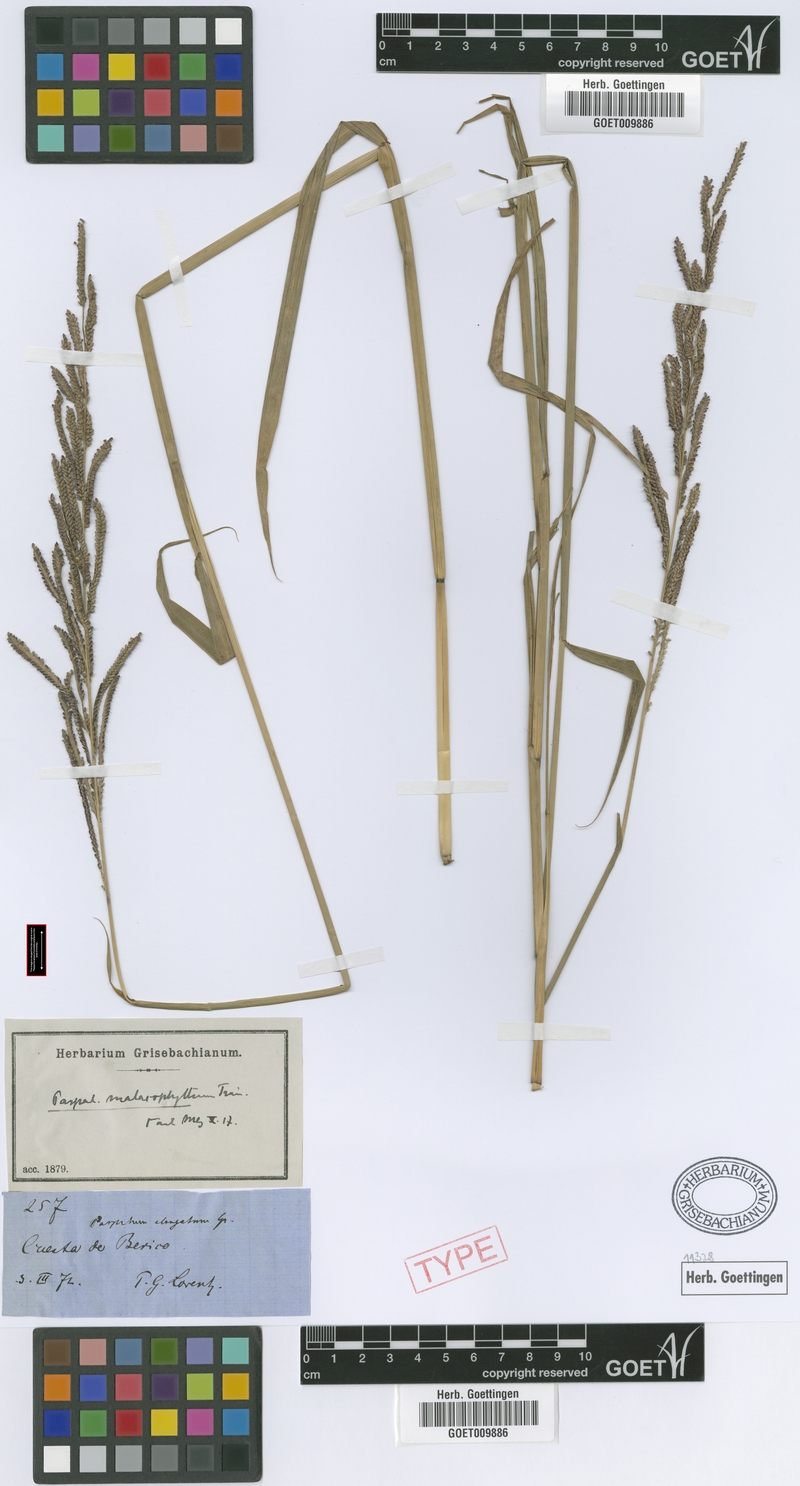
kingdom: Plantae
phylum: Tracheophyta
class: Liliopsida
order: Poales
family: Poaceae
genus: Paspalum
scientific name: Paspalum malacophyllum
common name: Ribbed paspalum
